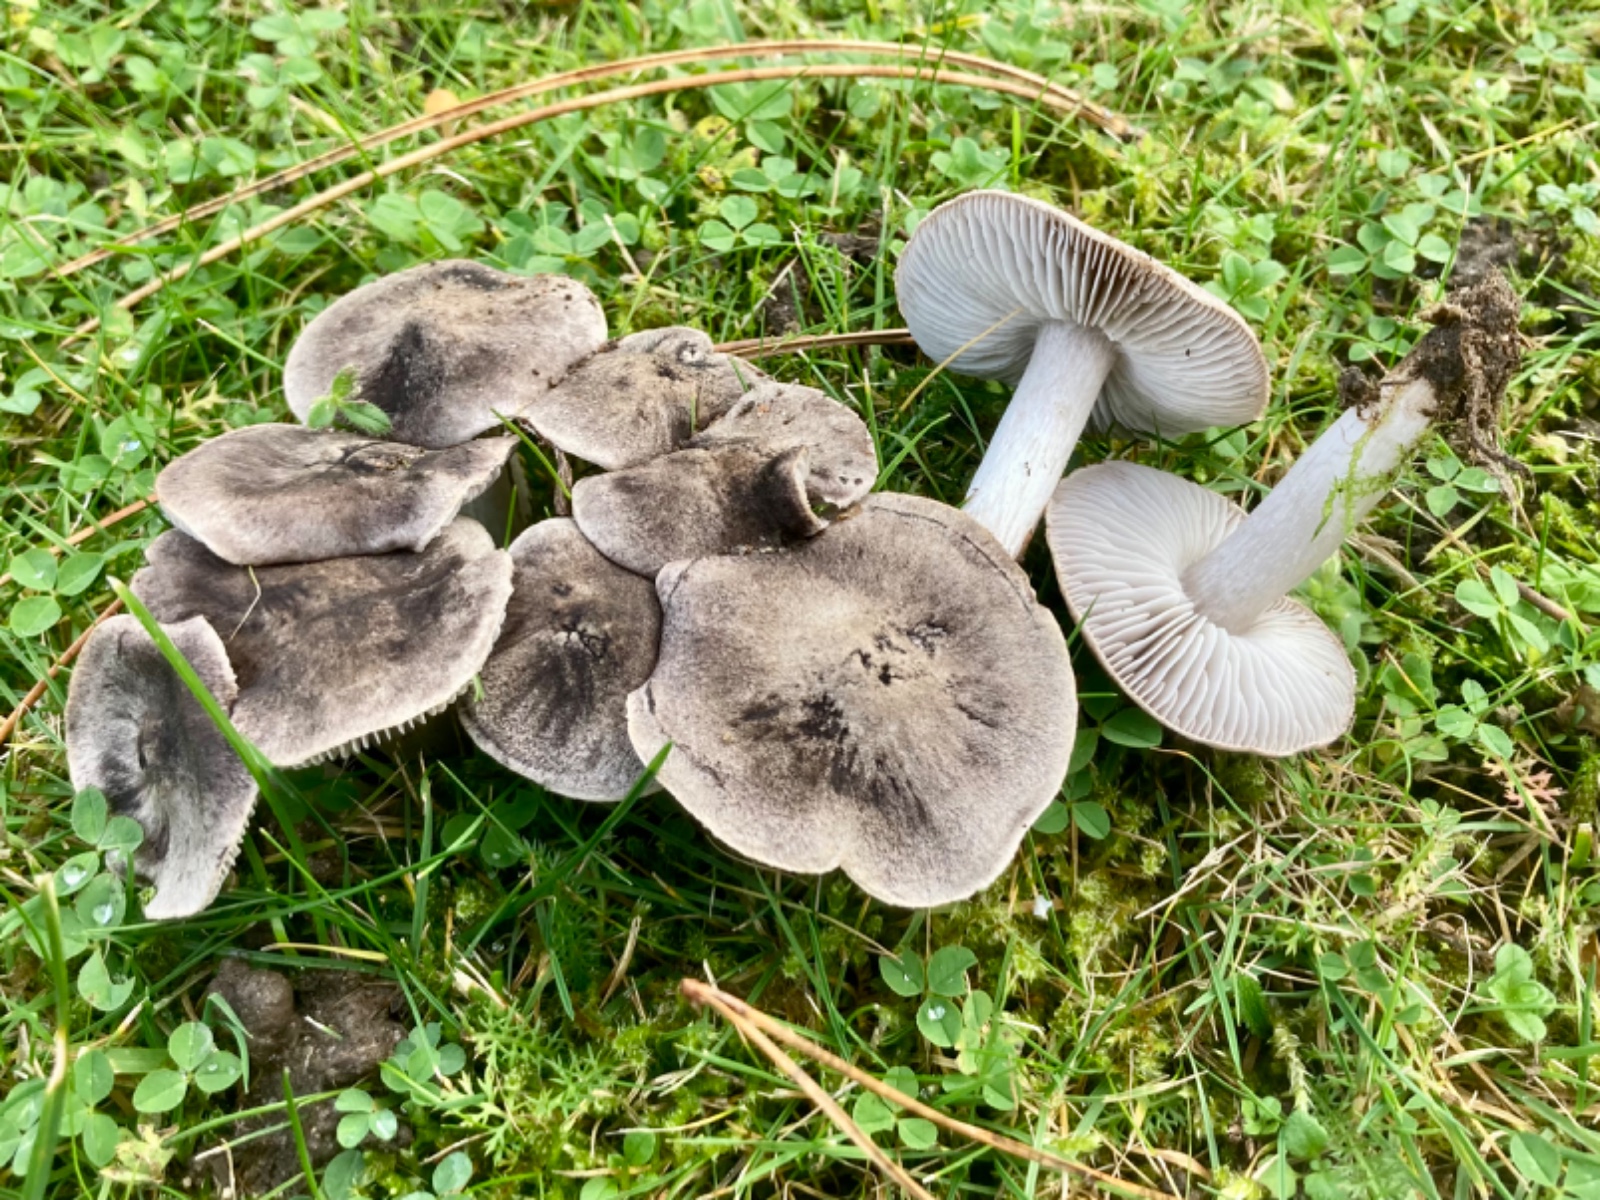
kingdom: Fungi
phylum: Basidiomycota
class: Agaricomycetes
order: Agaricales
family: Tricholomataceae
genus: Tricholoma
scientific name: Tricholoma terreum
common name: jordfarvet ridderhat
